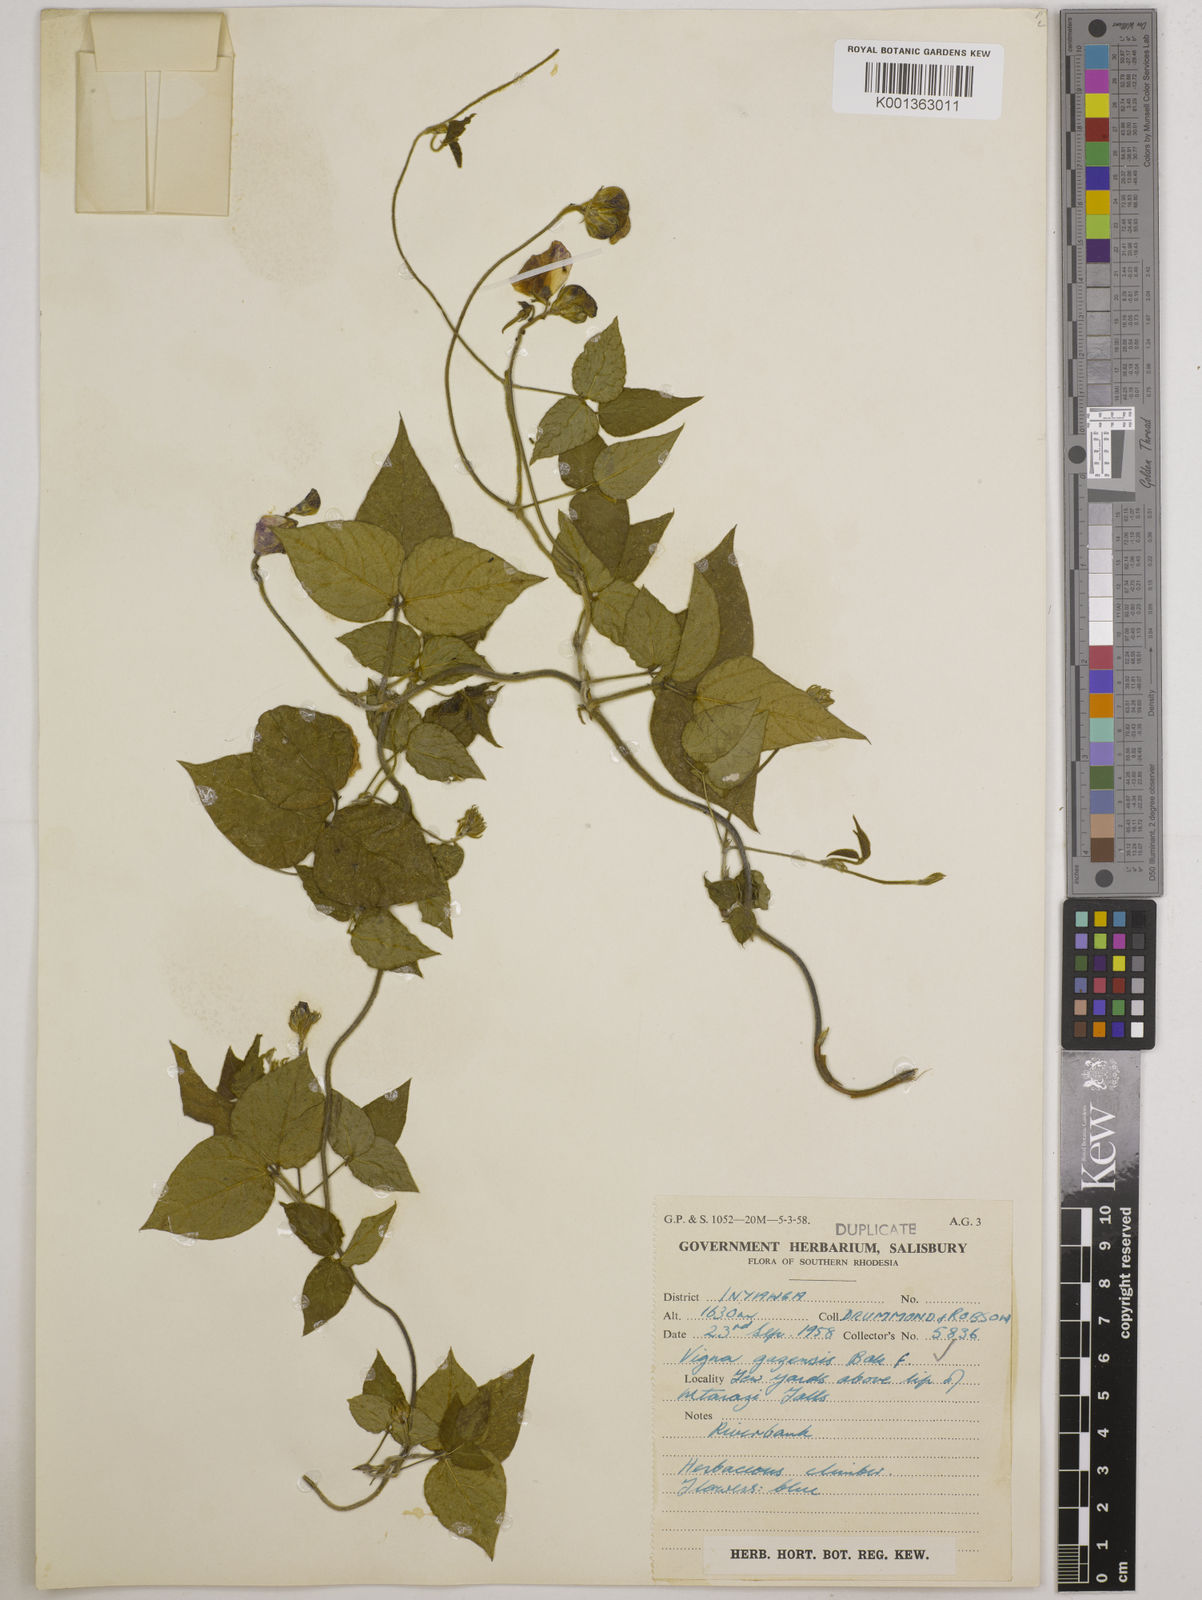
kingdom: Plantae
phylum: Tracheophyta
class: Magnoliopsida
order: Fabales
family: Fabaceae
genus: Vigna
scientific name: Vigna gazensis
